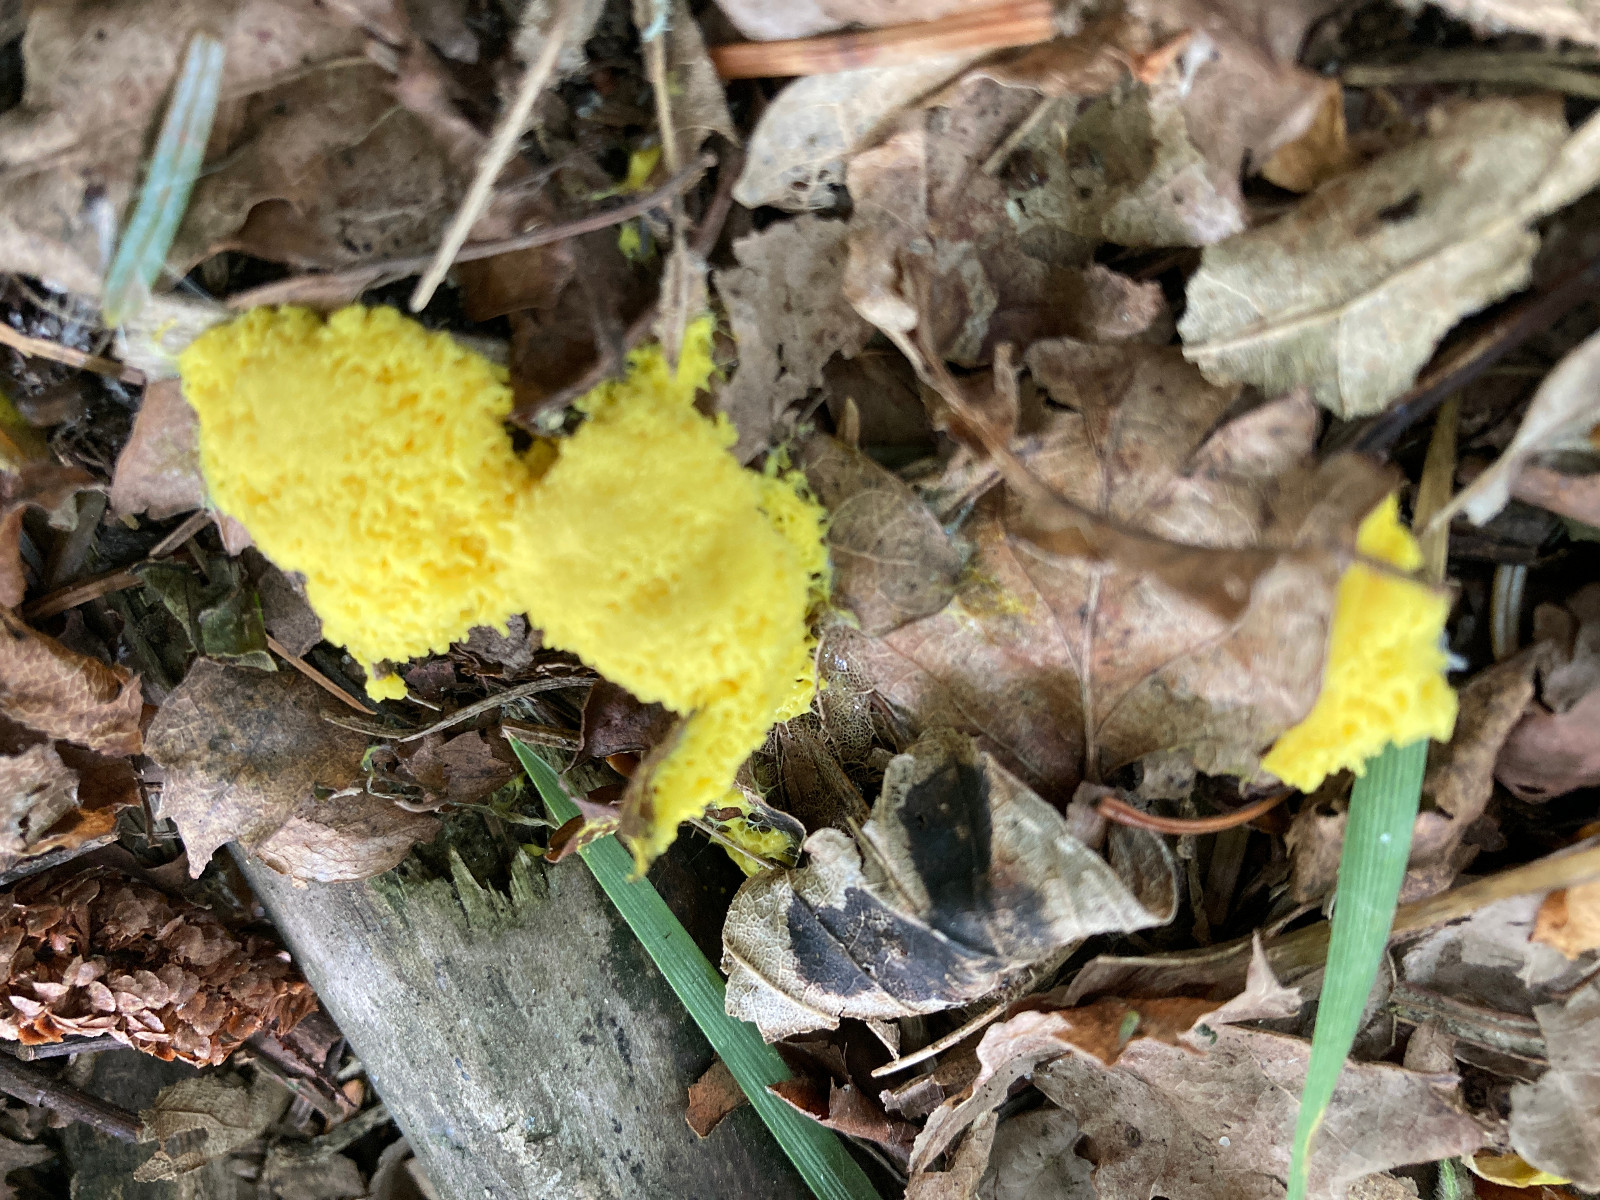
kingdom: Protozoa
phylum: Mycetozoa
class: Myxomycetes
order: Physarales
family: Physaraceae
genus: Fuligo
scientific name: Fuligo septica
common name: gul troldsmør
